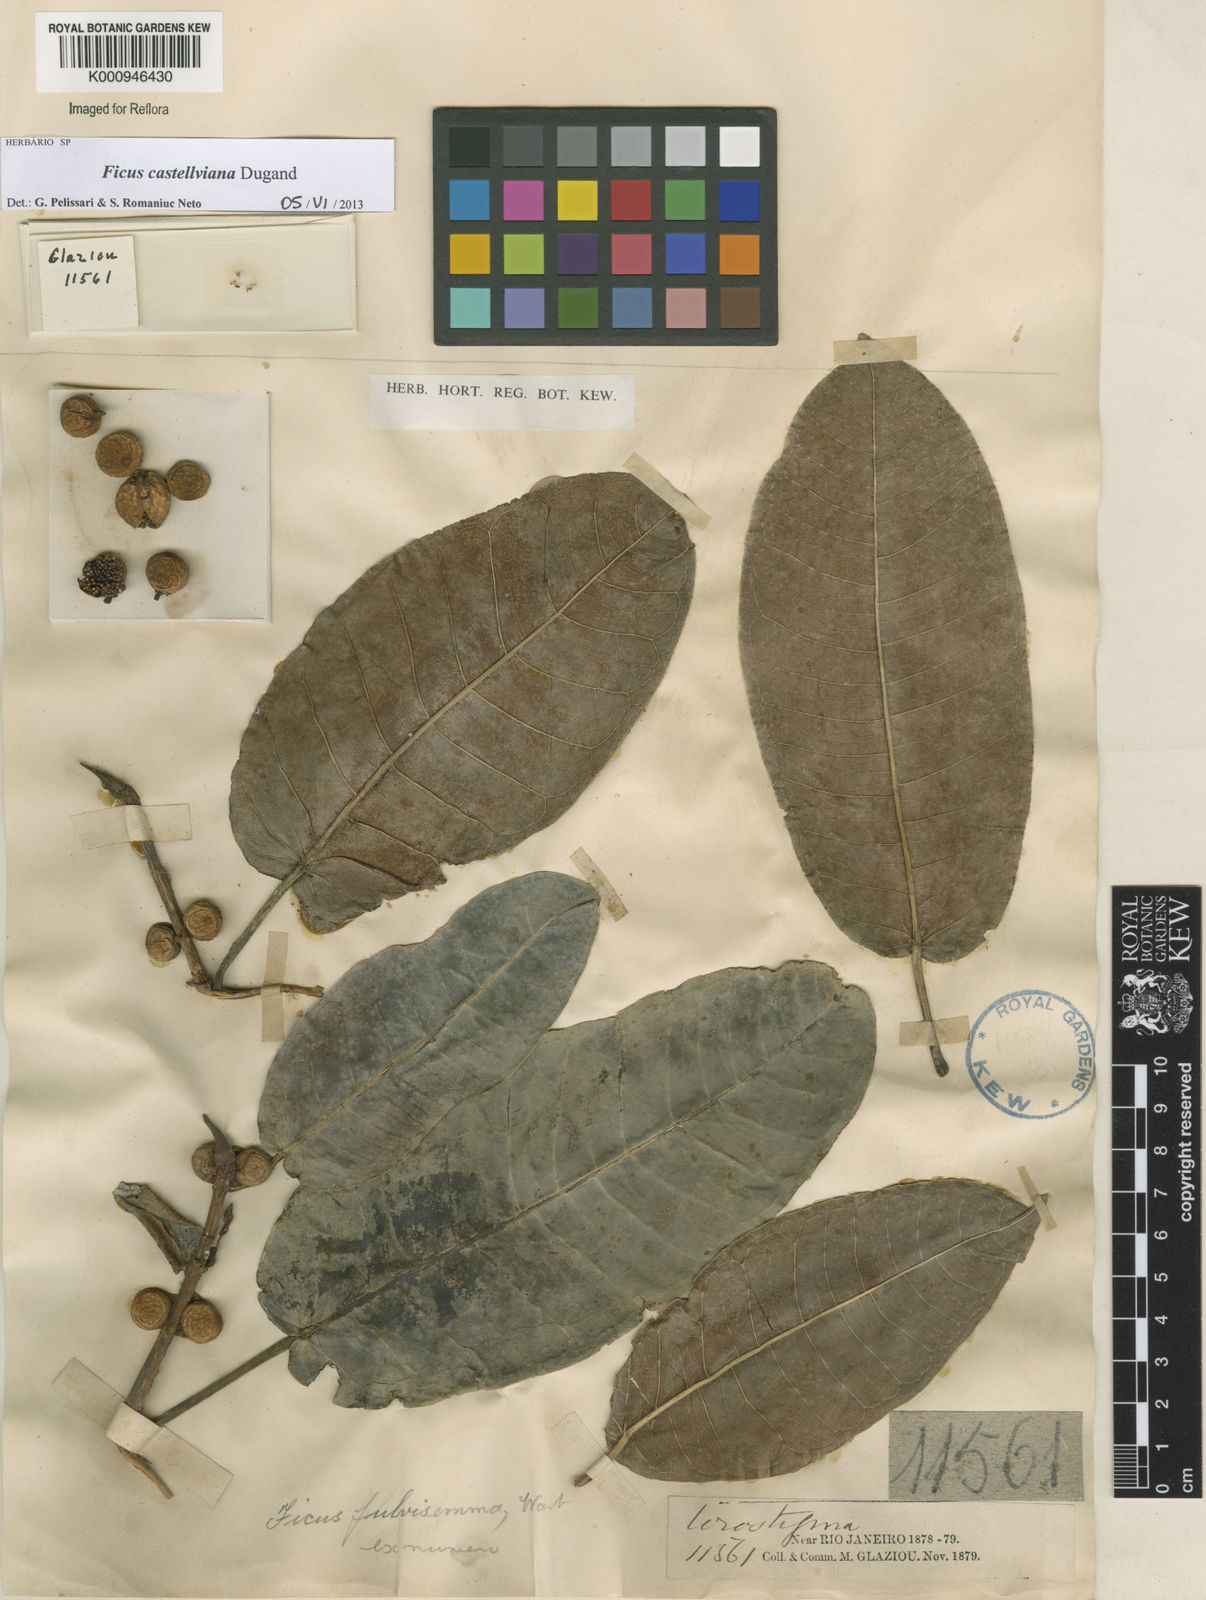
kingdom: Plantae
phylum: Tracheophyta
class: Magnoliopsida
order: Rosales
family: Moraceae
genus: Ficus
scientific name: Ficus castellviana
